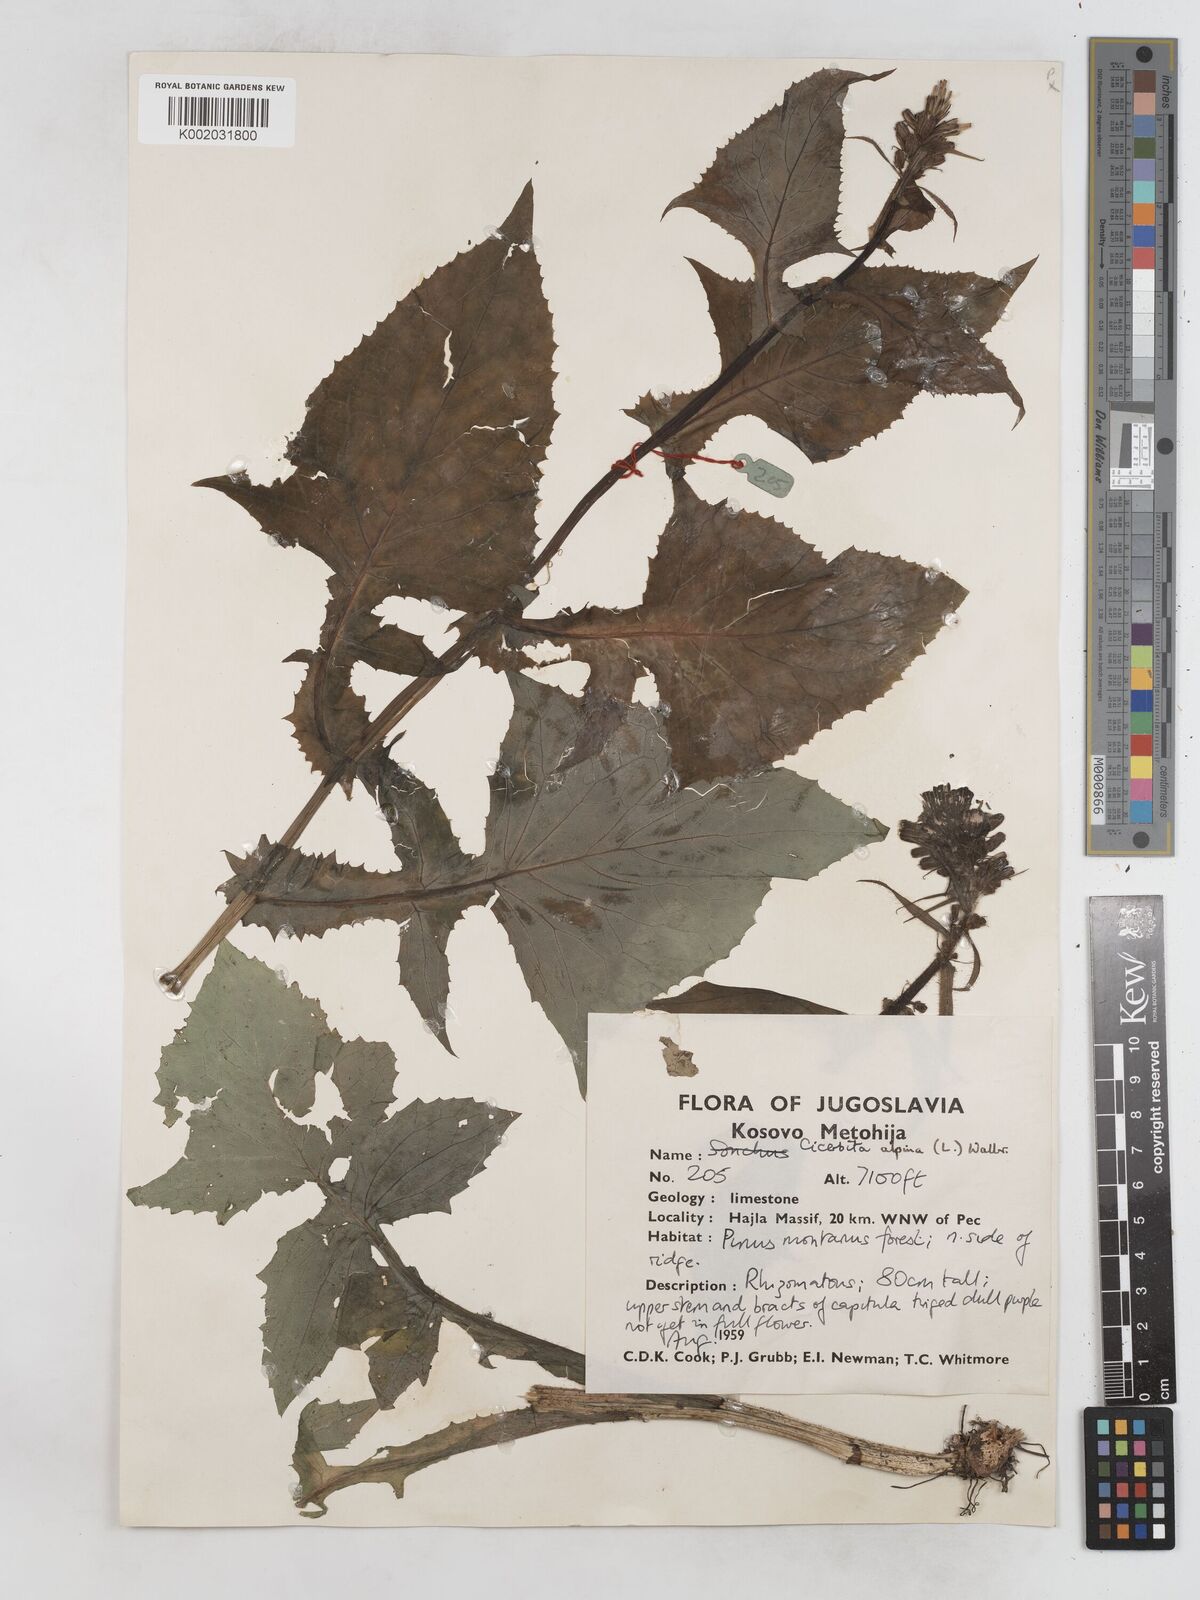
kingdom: Plantae
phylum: Tracheophyta
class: Magnoliopsida
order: Asterales
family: Asteraceae
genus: Cicerbita
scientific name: Cicerbita alpina
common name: Alpine blue-sow-thistle
